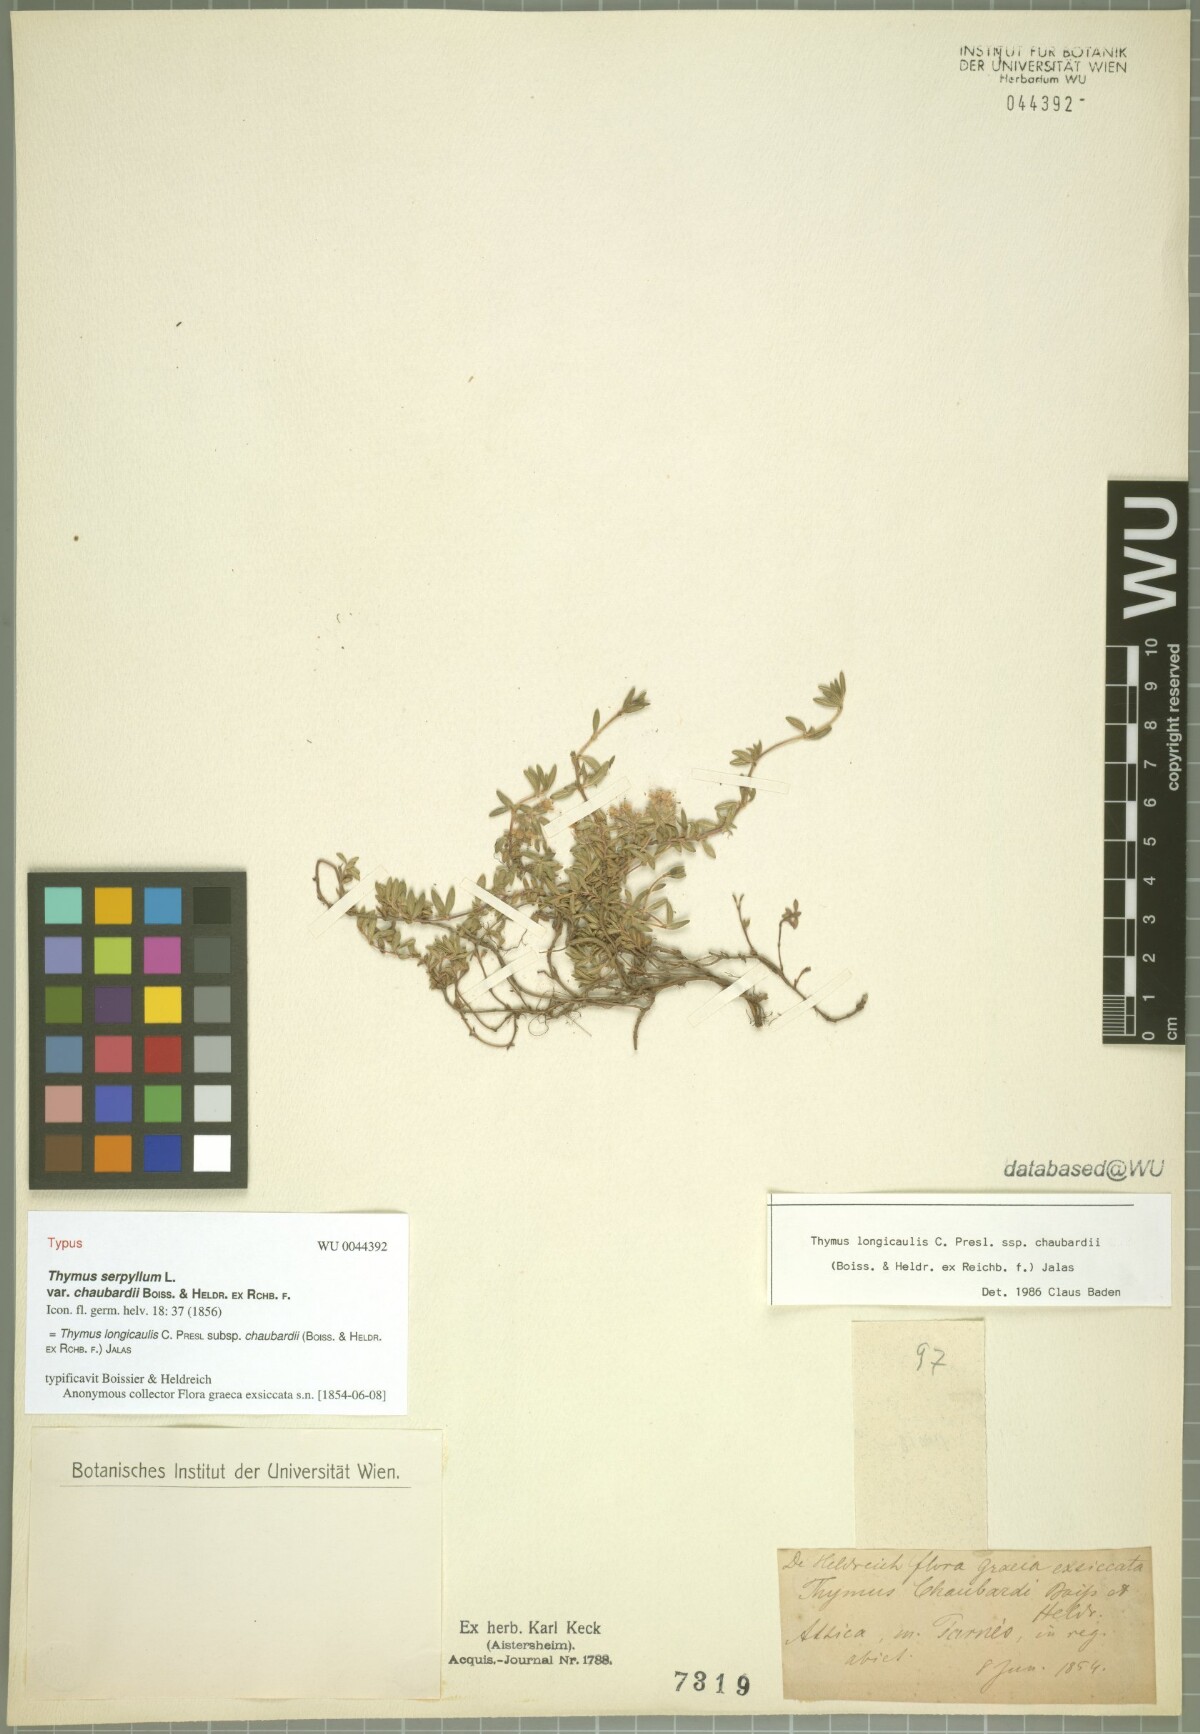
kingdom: Plantae
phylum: Tracheophyta
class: Magnoliopsida
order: Lamiales
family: Lamiaceae
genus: Thymus
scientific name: Thymus longicaulis
